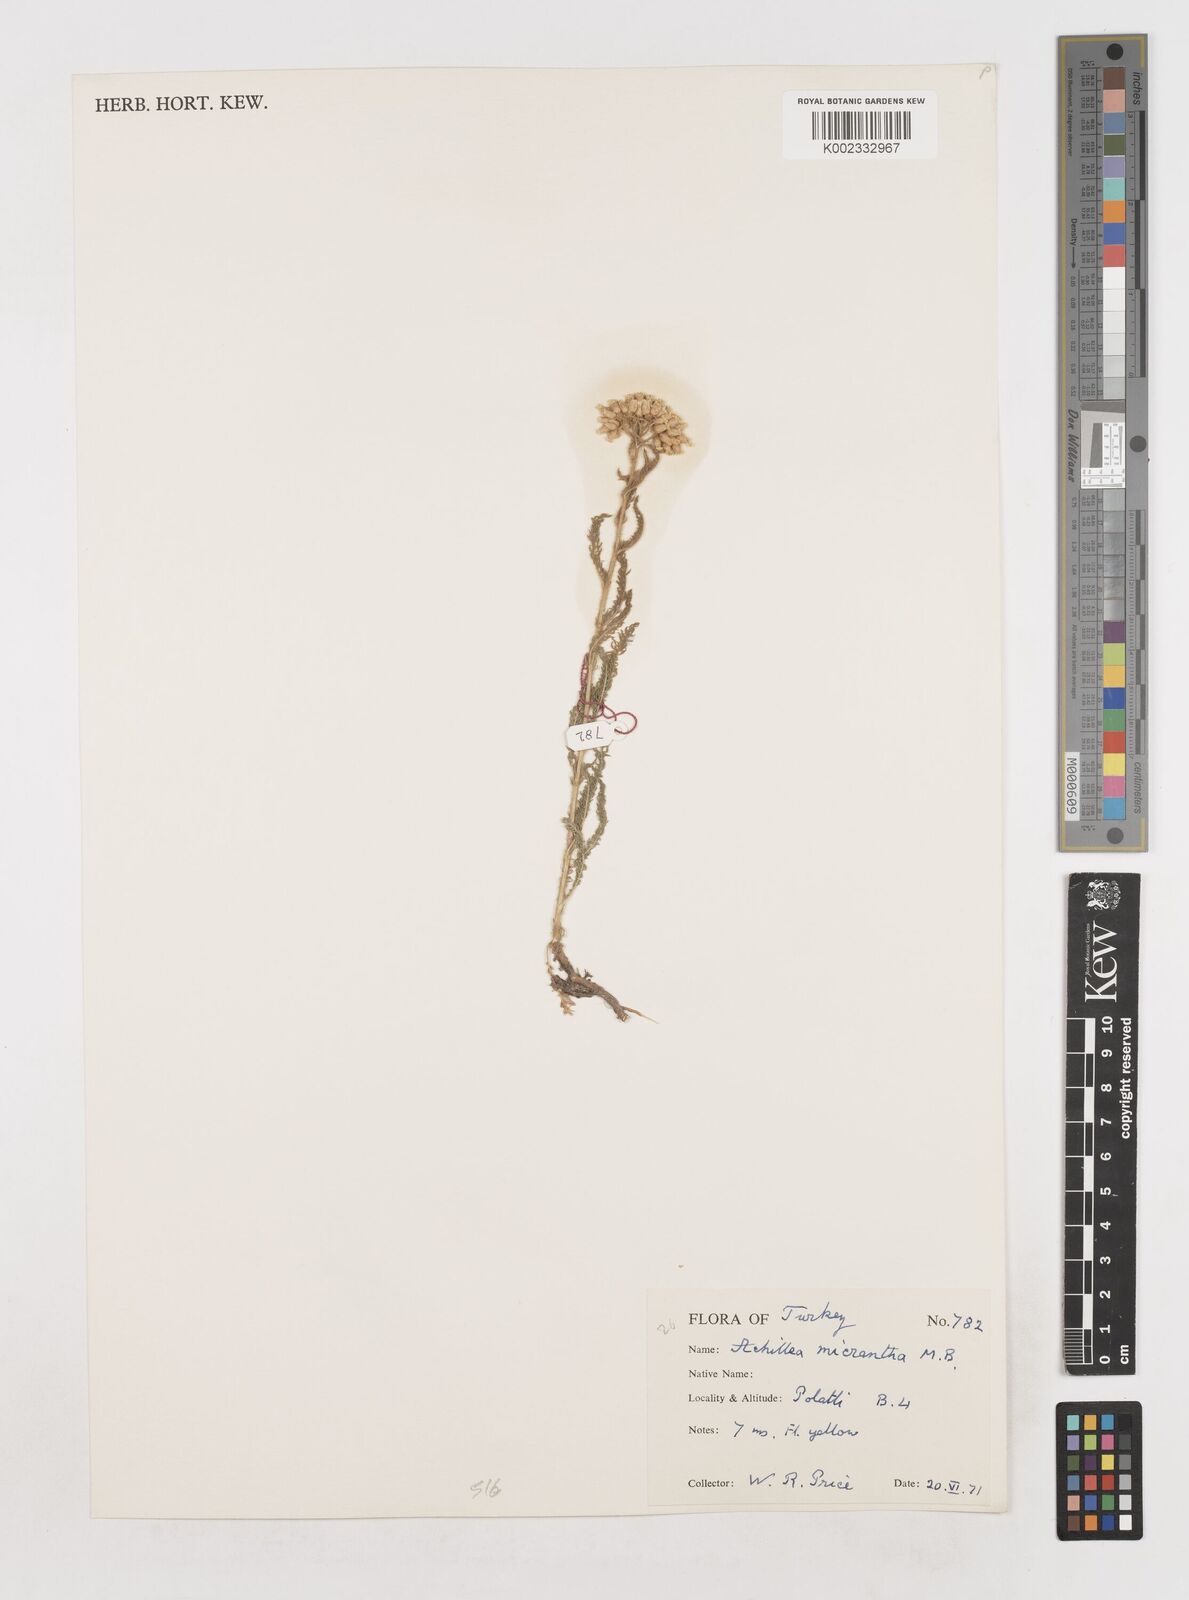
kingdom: Plantae
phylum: Tracheophyta
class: Magnoliopsida
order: Asterales
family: Asteraceae
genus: Achillea
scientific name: Achillea arabica
